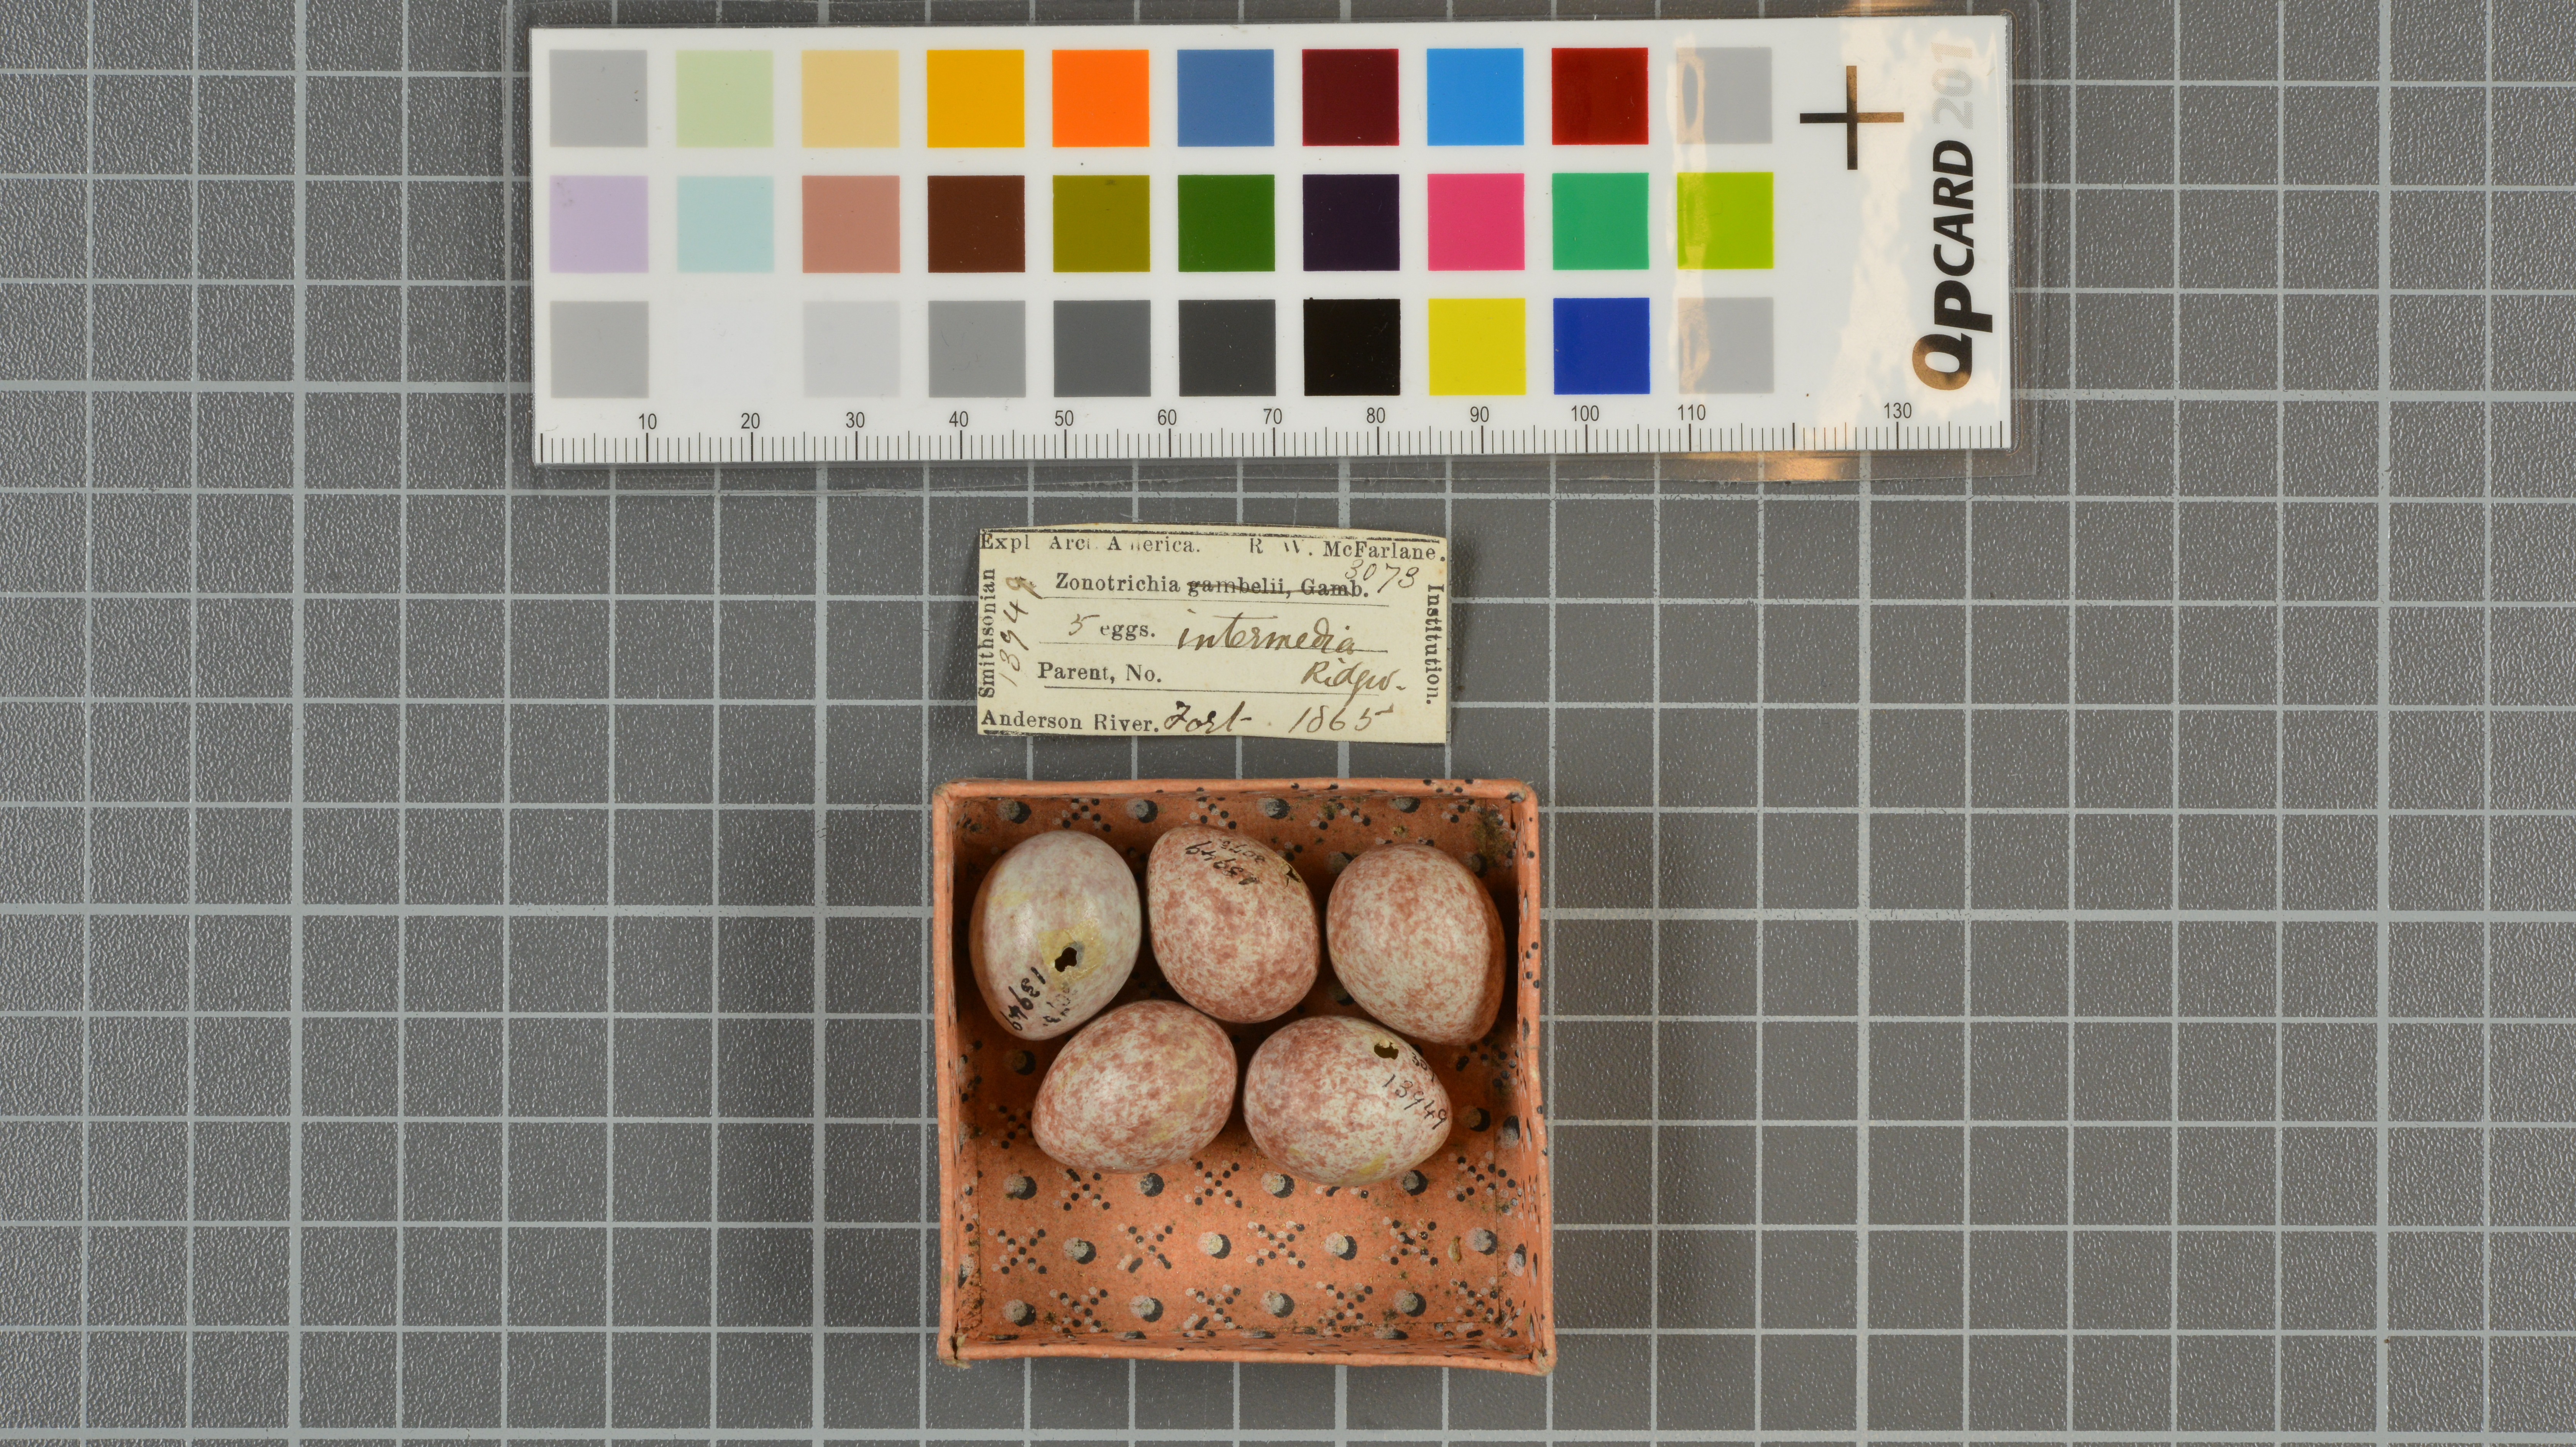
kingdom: Animalia
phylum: Chordata
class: Aves
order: Passeriformes
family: Passerellidae
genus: Zonotrichia
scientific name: Zonotrichia leucophrys
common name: White-crowned sparrow
